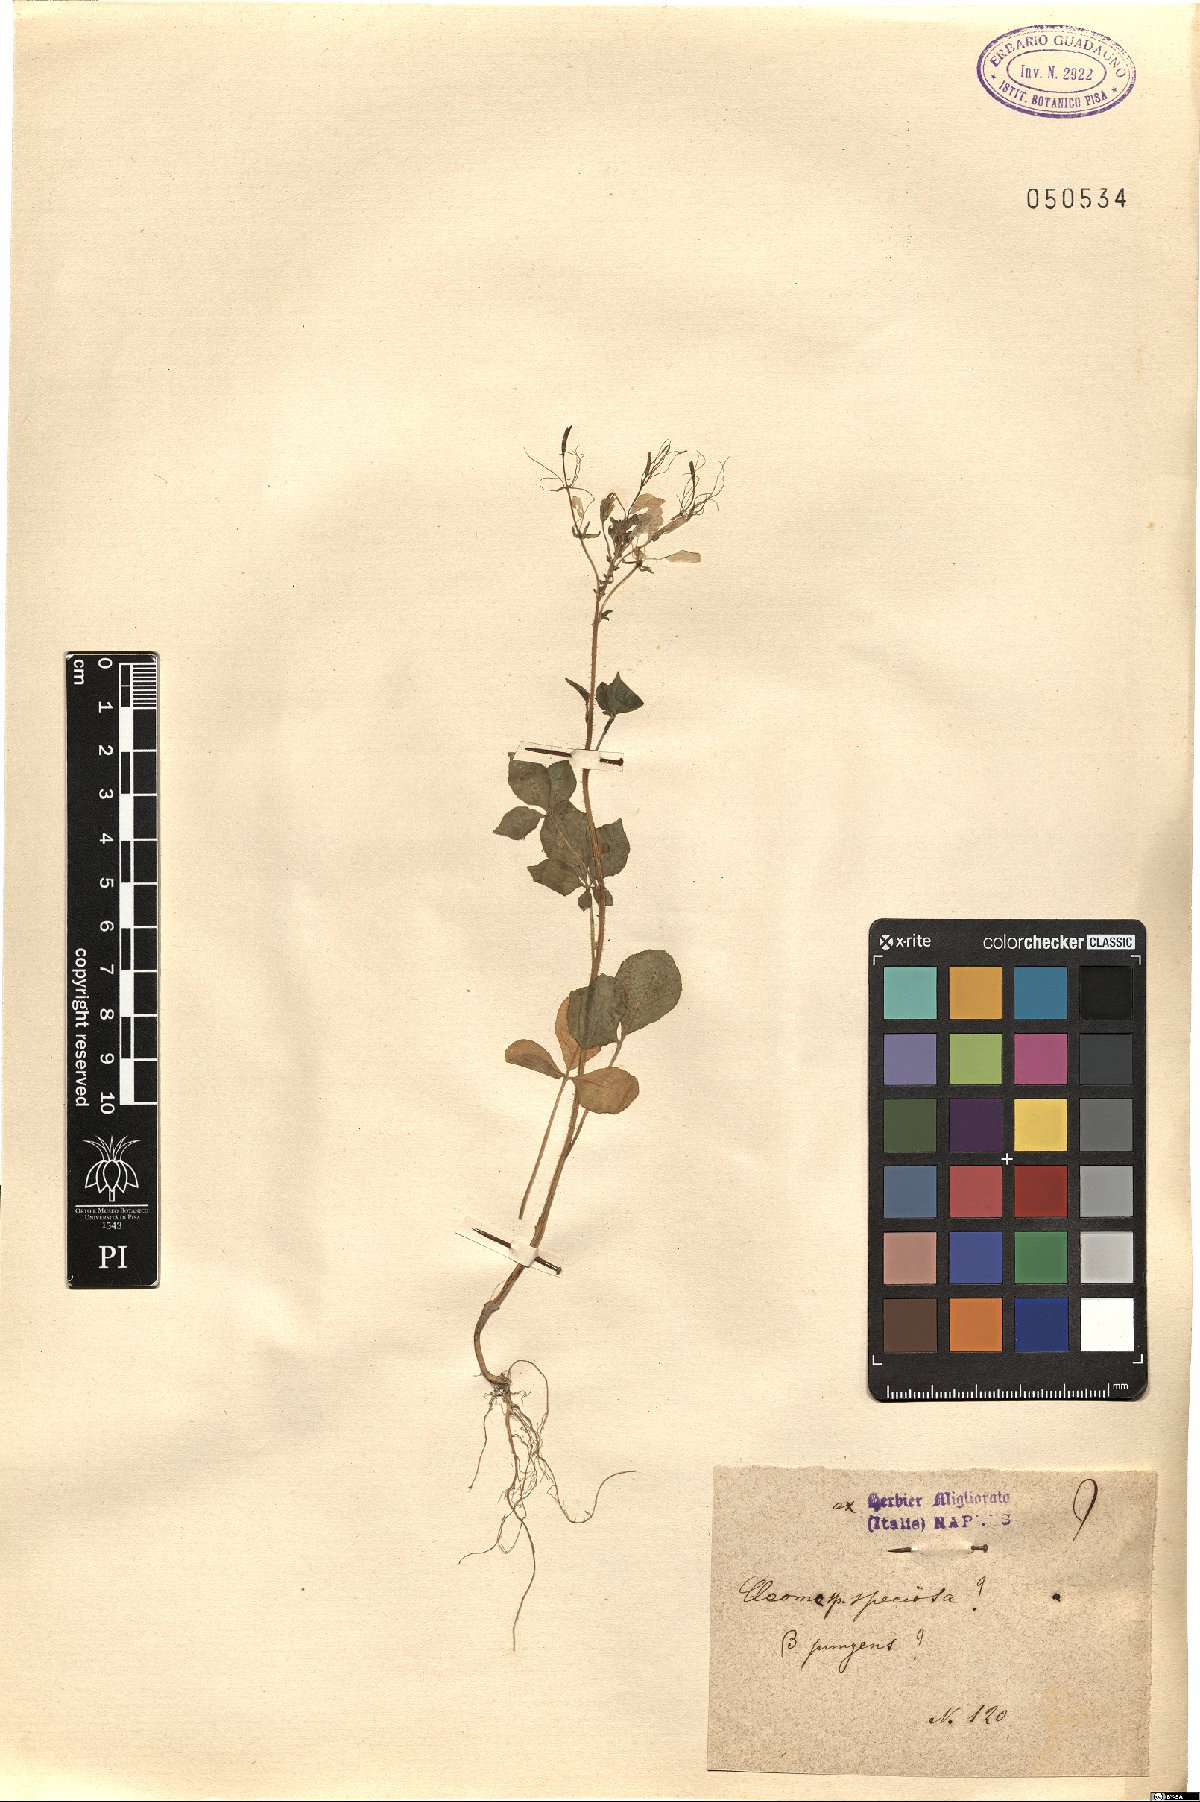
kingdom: Plantae
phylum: Tracheophyta
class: Magnoliopsida
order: Brassicales
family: Cleomaceae
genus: Cleoserrata
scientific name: Cleoserrata speciosa
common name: Volantines preciosos
